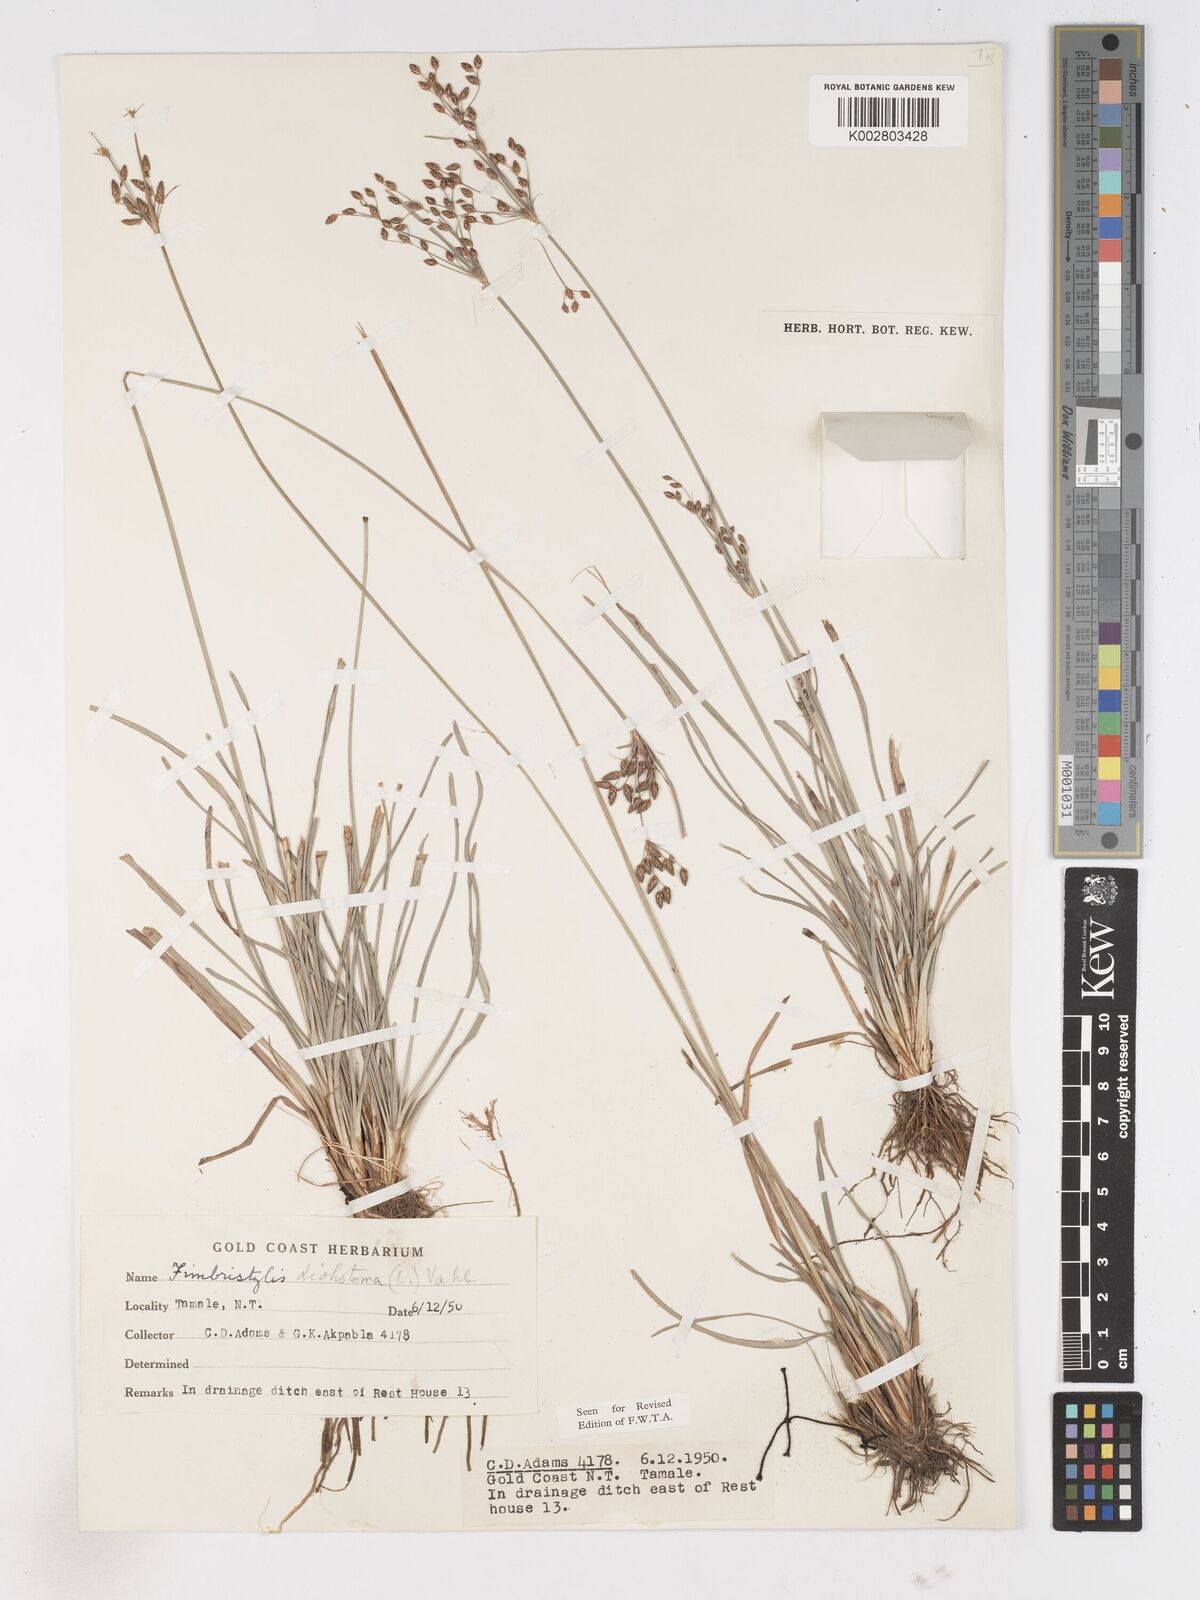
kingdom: Plantae
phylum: Tracheophyta
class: Liliopsida
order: Poales
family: Cyperaceae
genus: Fimbristylis
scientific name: Fimbristylis dichotoma
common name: Forked fimbry
